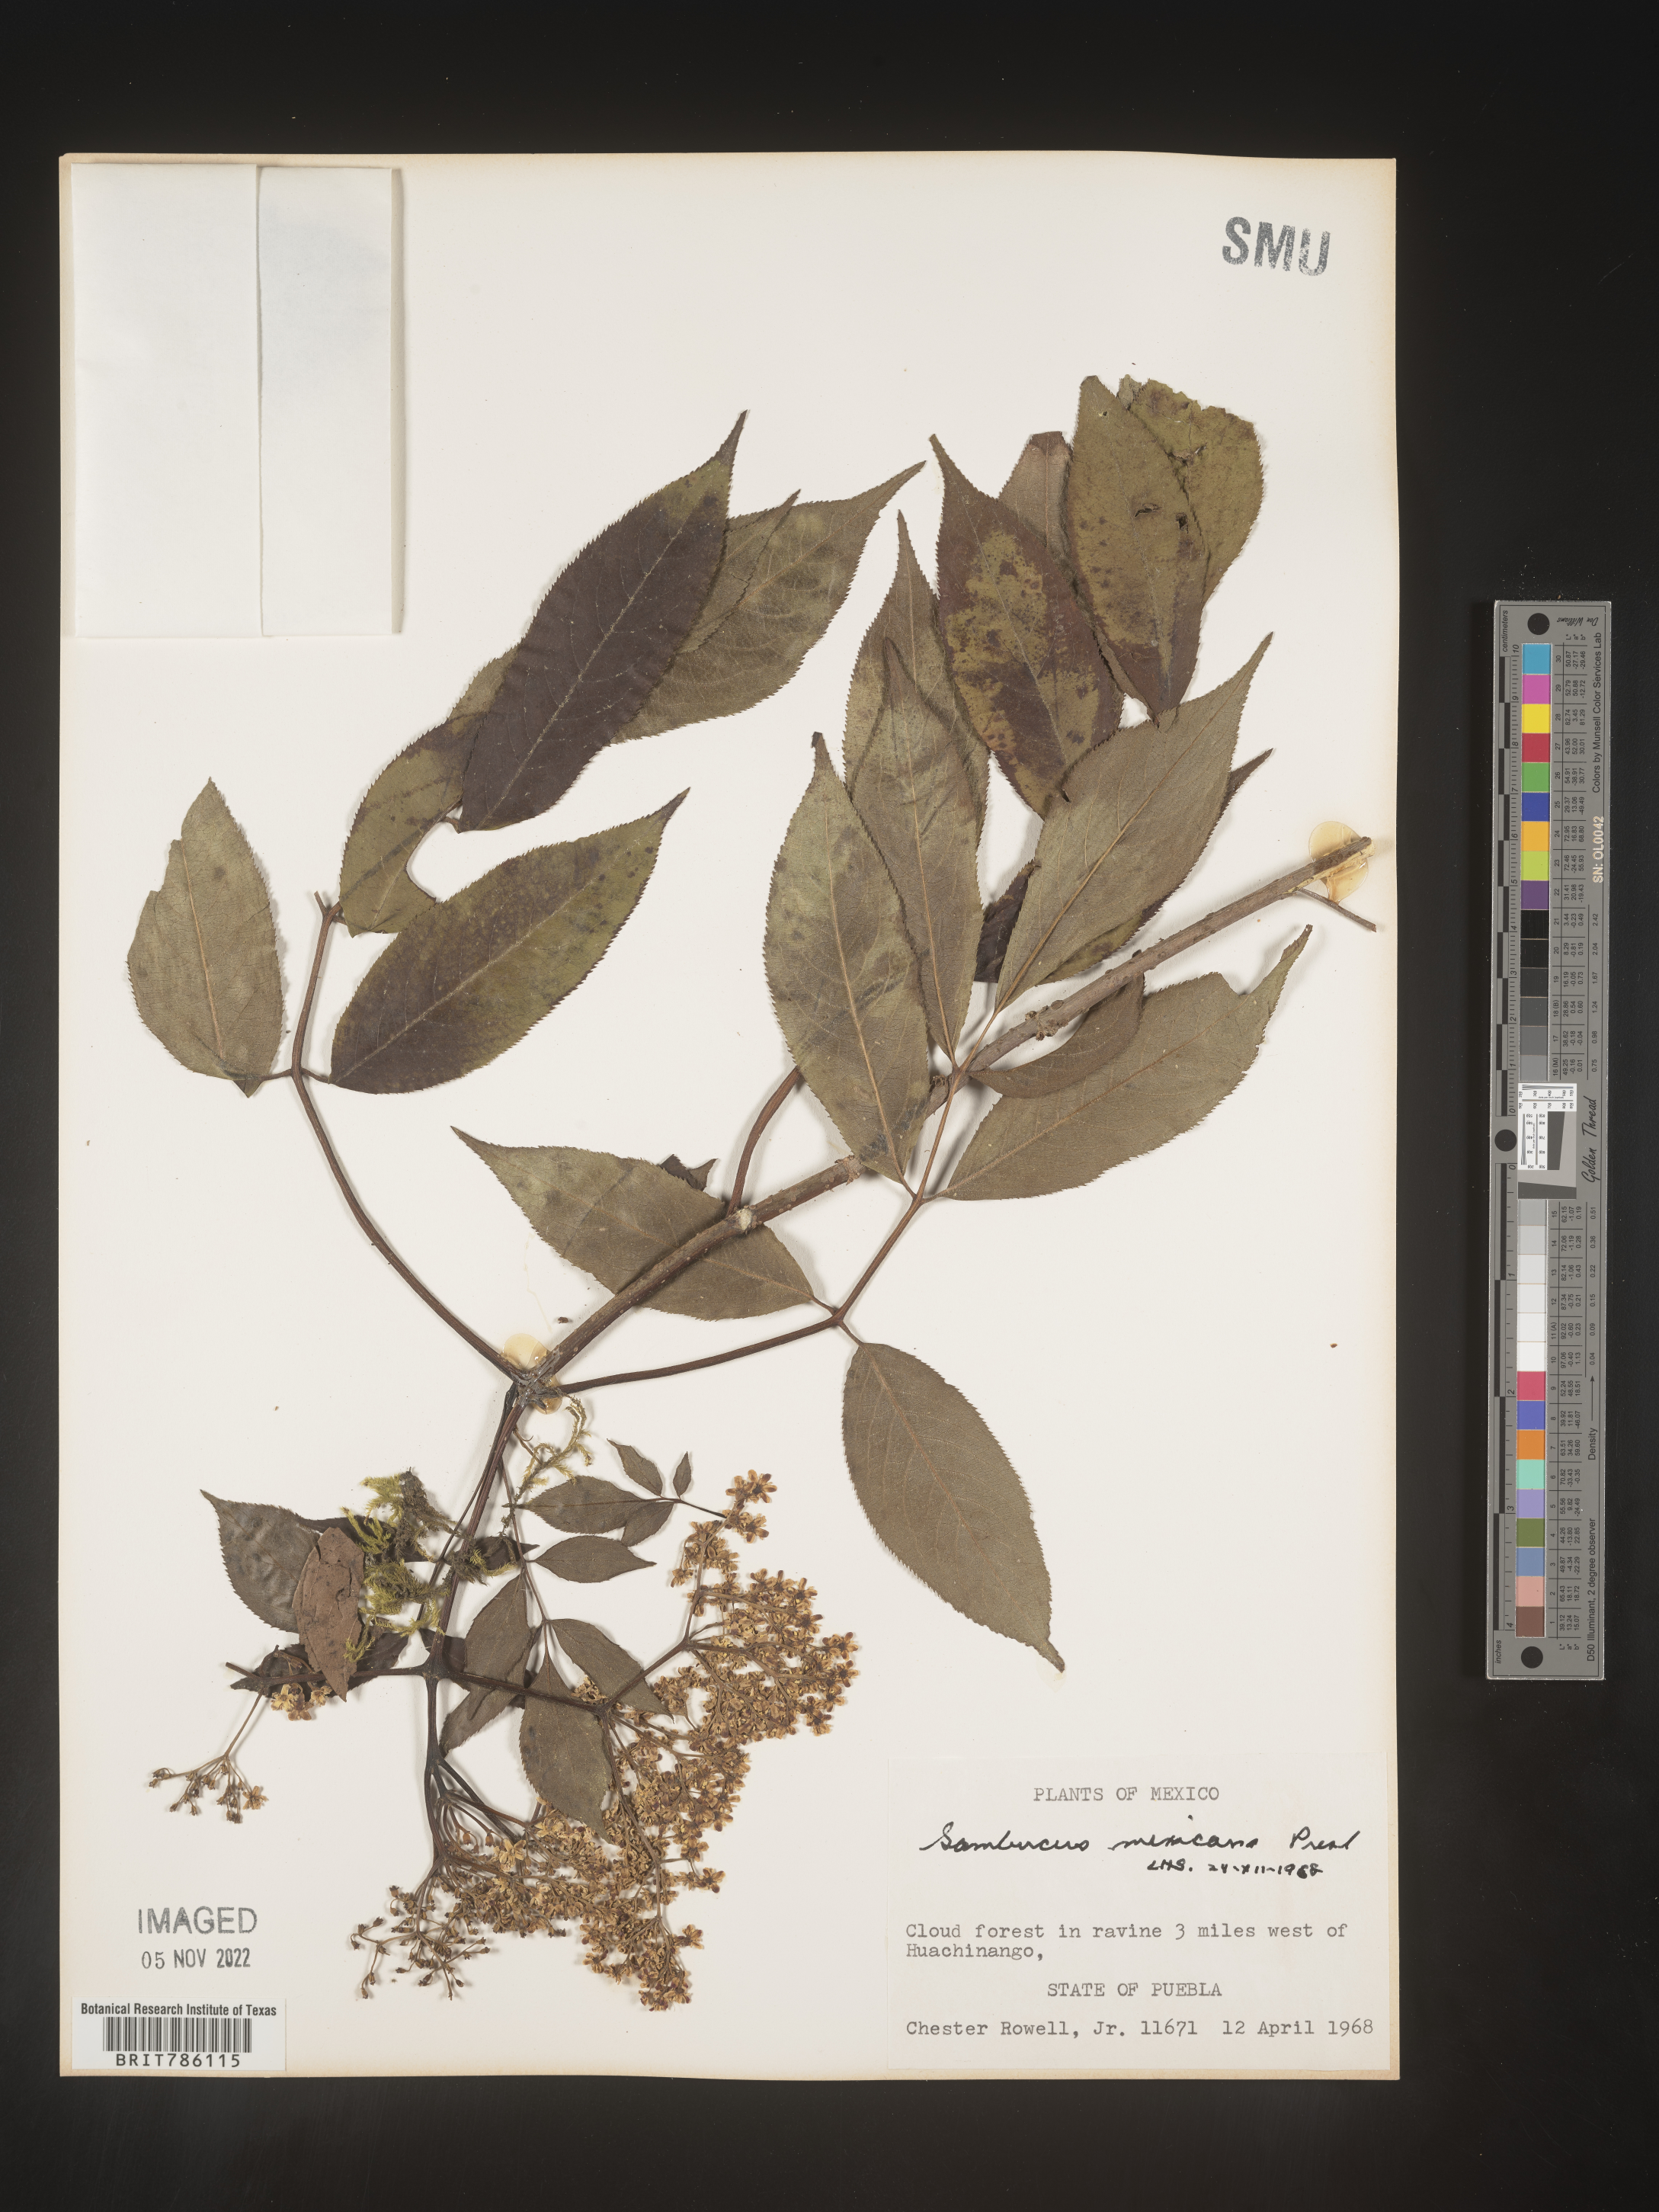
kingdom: Plantae
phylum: Tracheophyta
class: Magnoliopsida
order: Dipsacales
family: Viburnaceae
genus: Sambucus
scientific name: Sambucus
